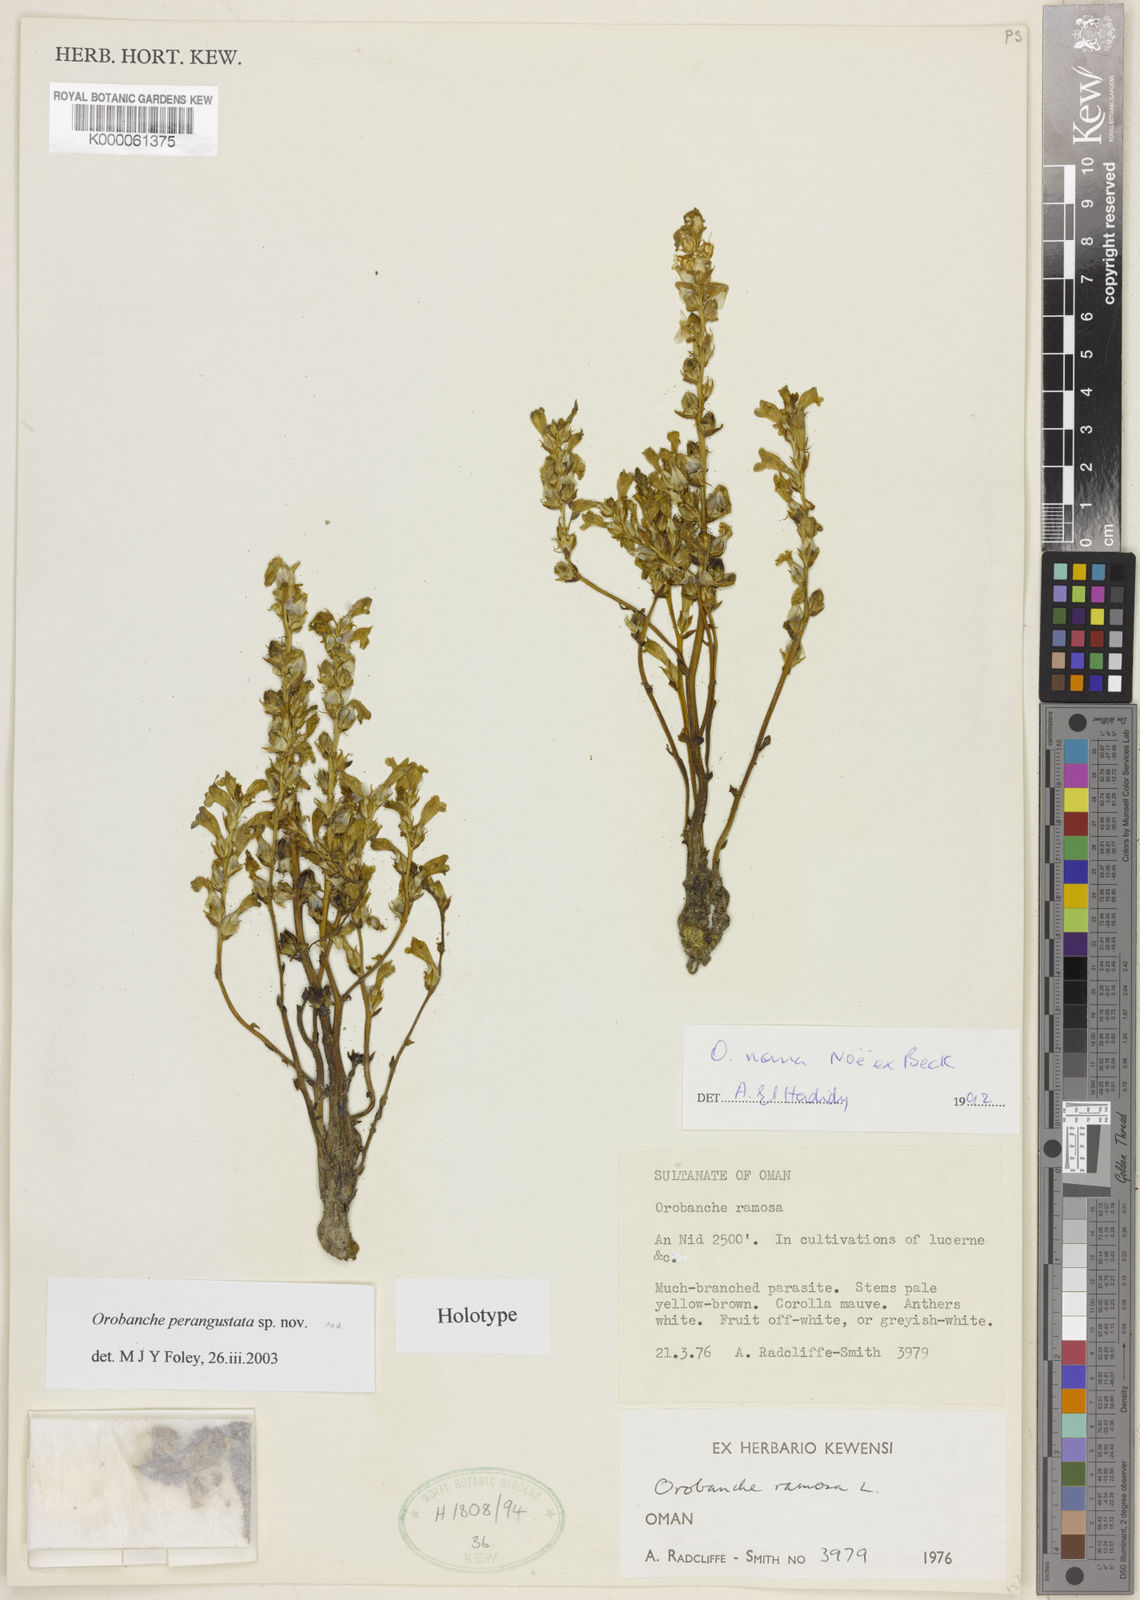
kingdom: Plantae
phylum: Tracheophyta
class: Magnoliopsida
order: Lamiales
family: Orobanchaceae
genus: Phelipanche
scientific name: Phelipanche perangustata
